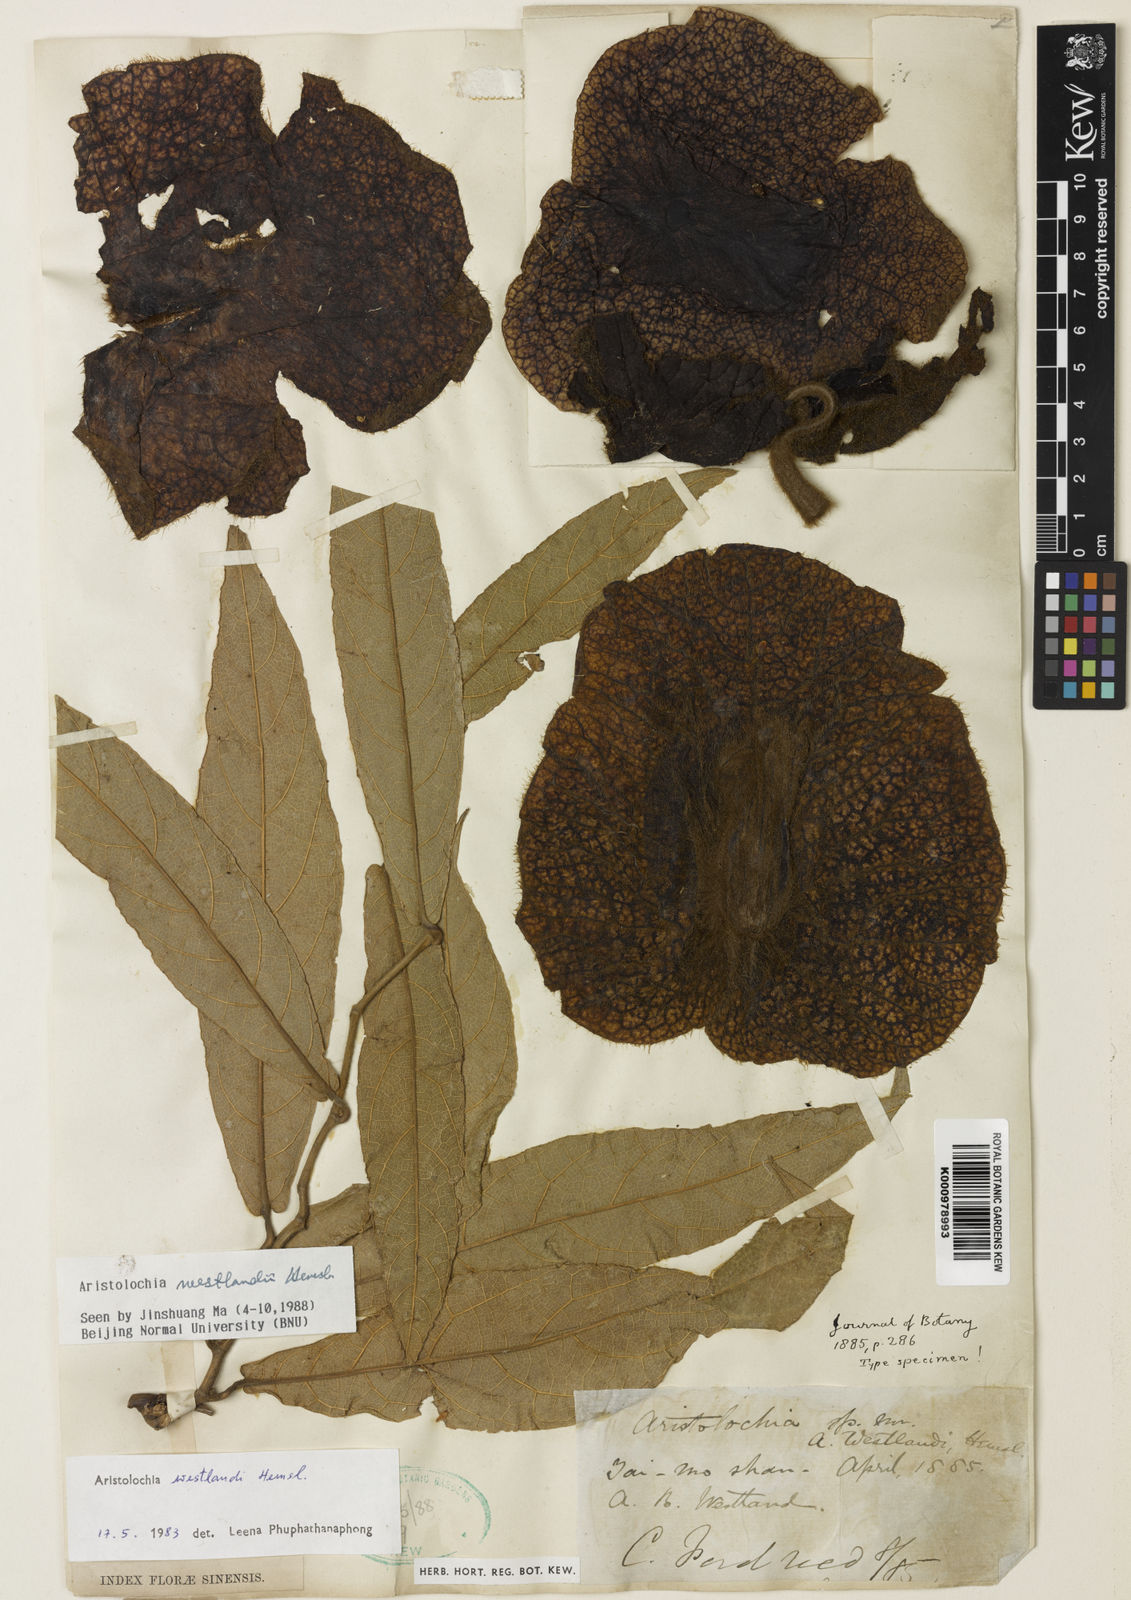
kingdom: Plantae
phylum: Tracheophyta
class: Magnoliopsida
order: Piperales
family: Aristolochiaceae
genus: Isotrema
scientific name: Isotrema westlandii
